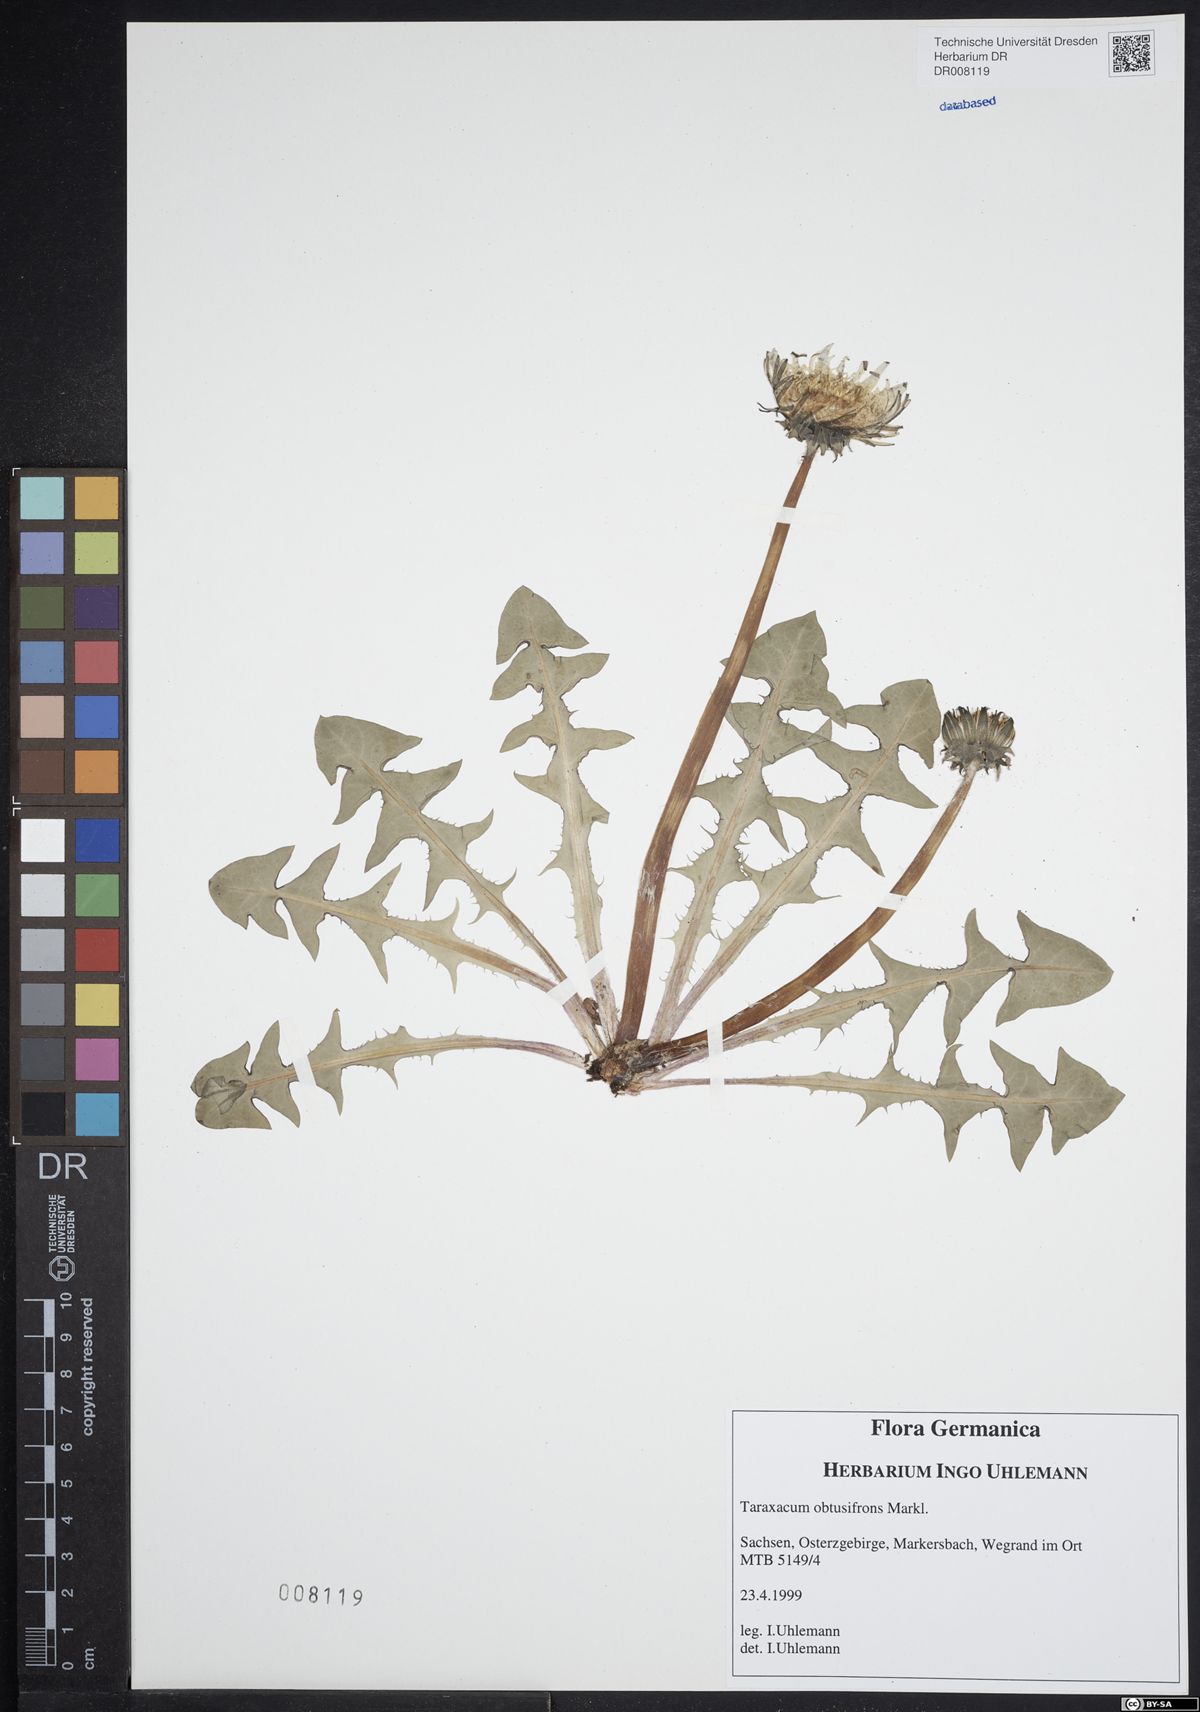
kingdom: Plantae
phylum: Tracheophyta
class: Magnoliopsida
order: Asterales
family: Asteraceae
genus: Taraxacum
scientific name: Taraxacum obtusifrons
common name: Obtuse-leaved dandelion
